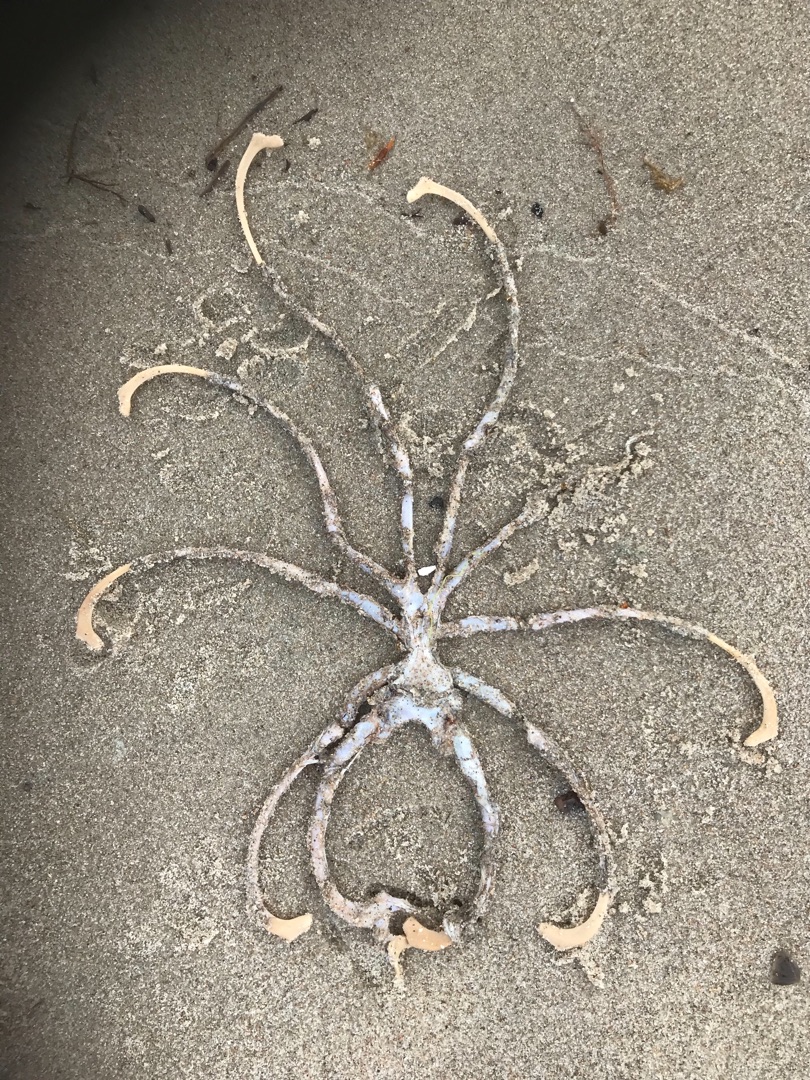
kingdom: Animalia
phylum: Arthropoda
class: Pycnogonida
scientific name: Pycnogonida
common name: Havedderkopper
